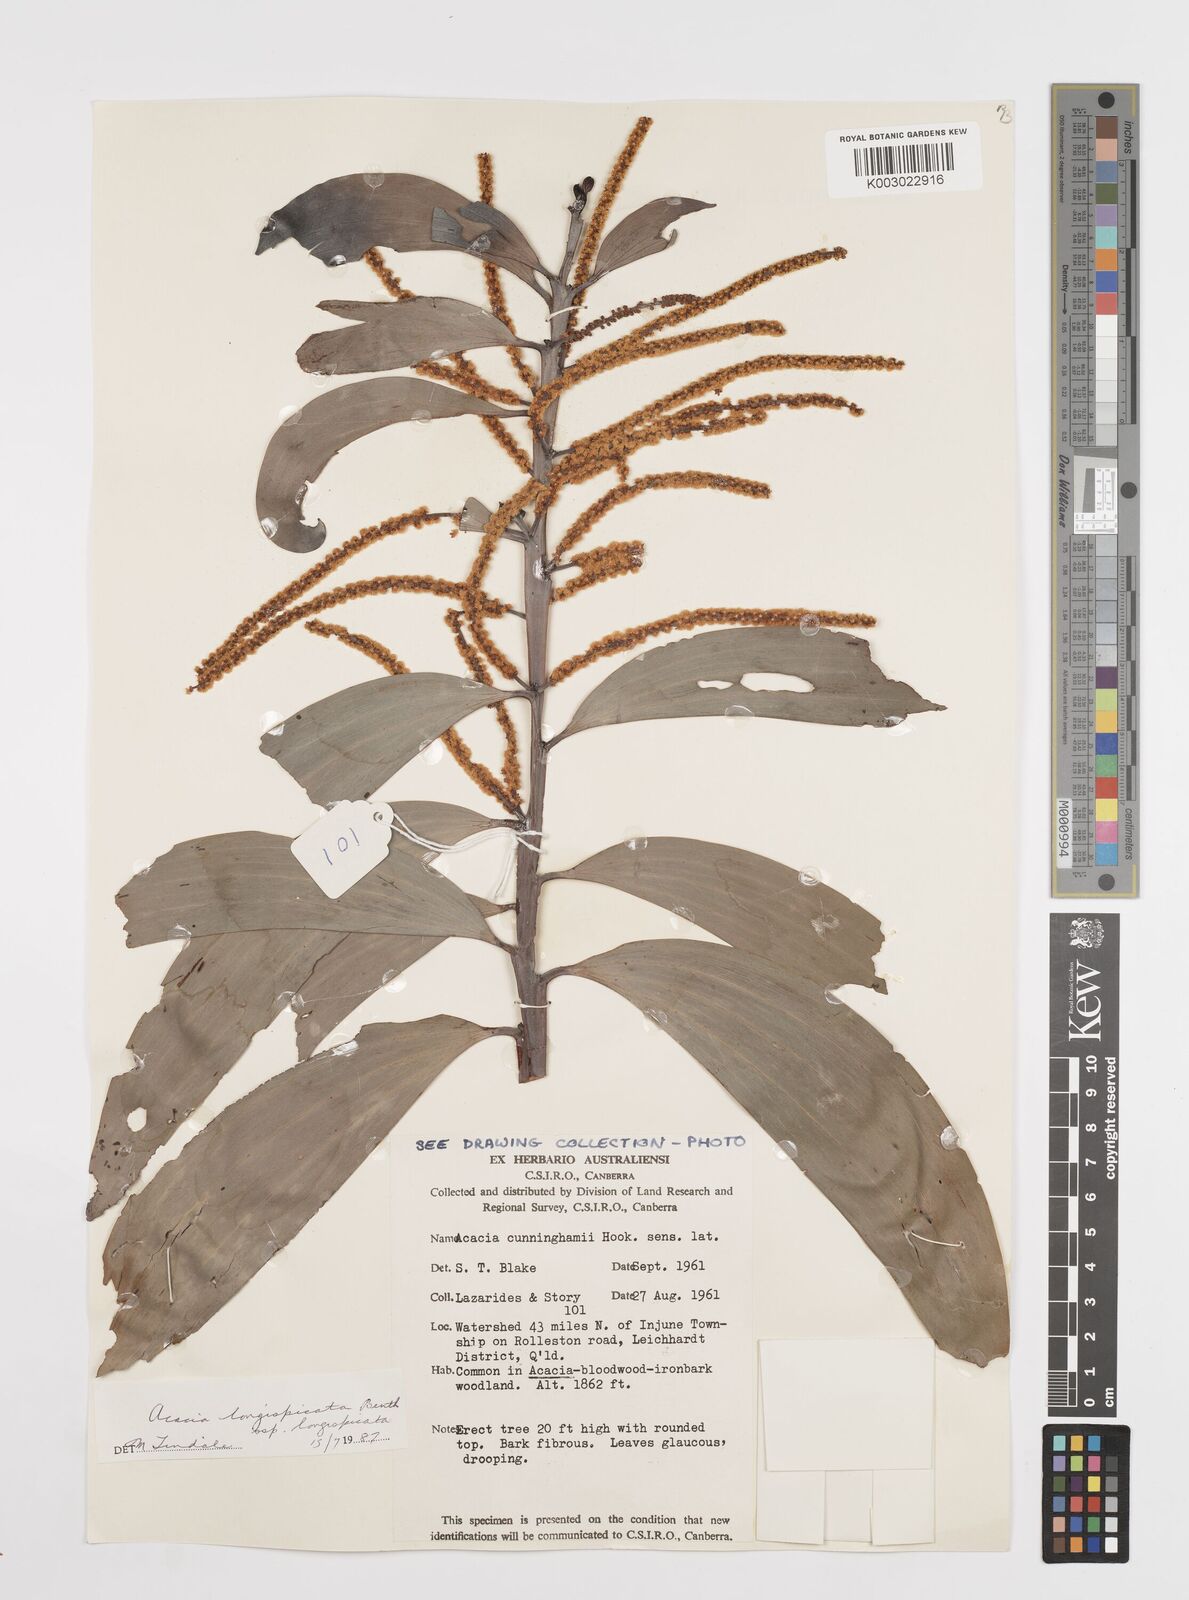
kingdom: Plantae
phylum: Tracheophyta
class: Magnoliopsida
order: Fabales
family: Fabaceae
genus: Acacia
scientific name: Acacia longispicata
